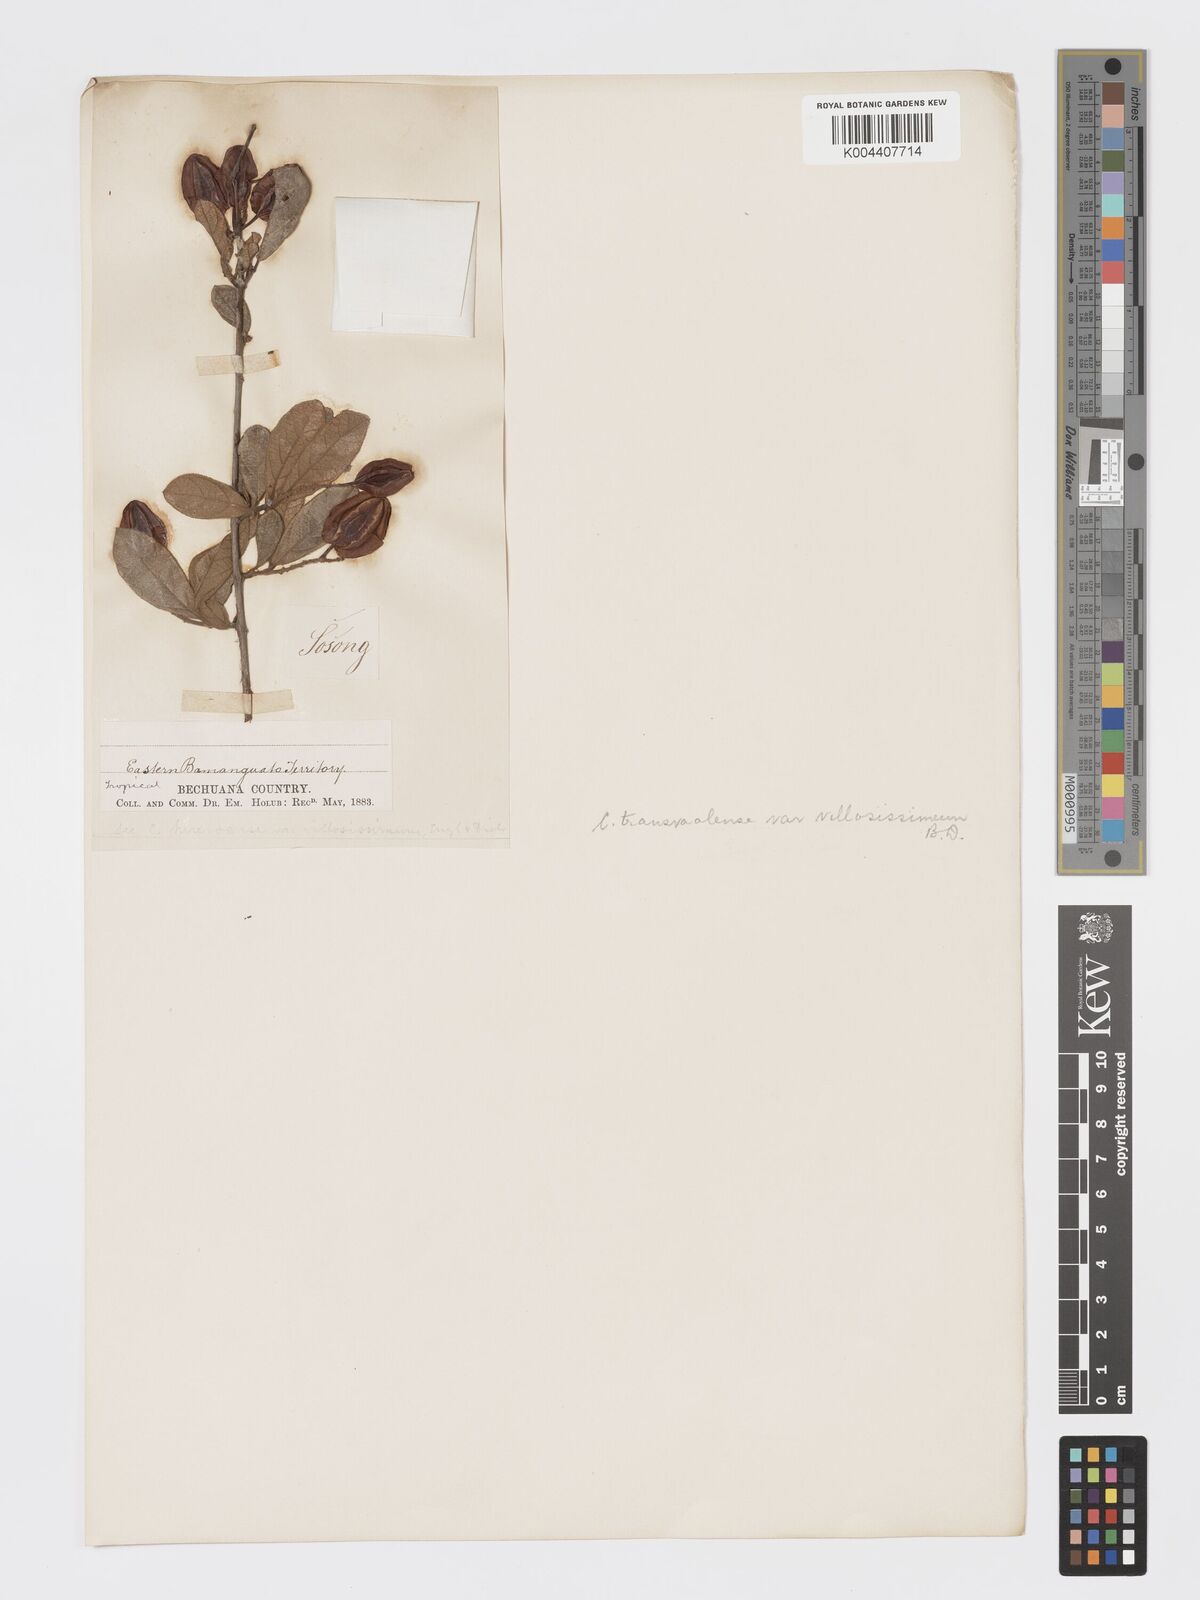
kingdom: Plantae
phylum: Tracheophyta
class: Magnoliopsida
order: Myrtales
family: Combretaceae
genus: Combretum
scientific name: Combretum hereroense
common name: Russet bushwillow
